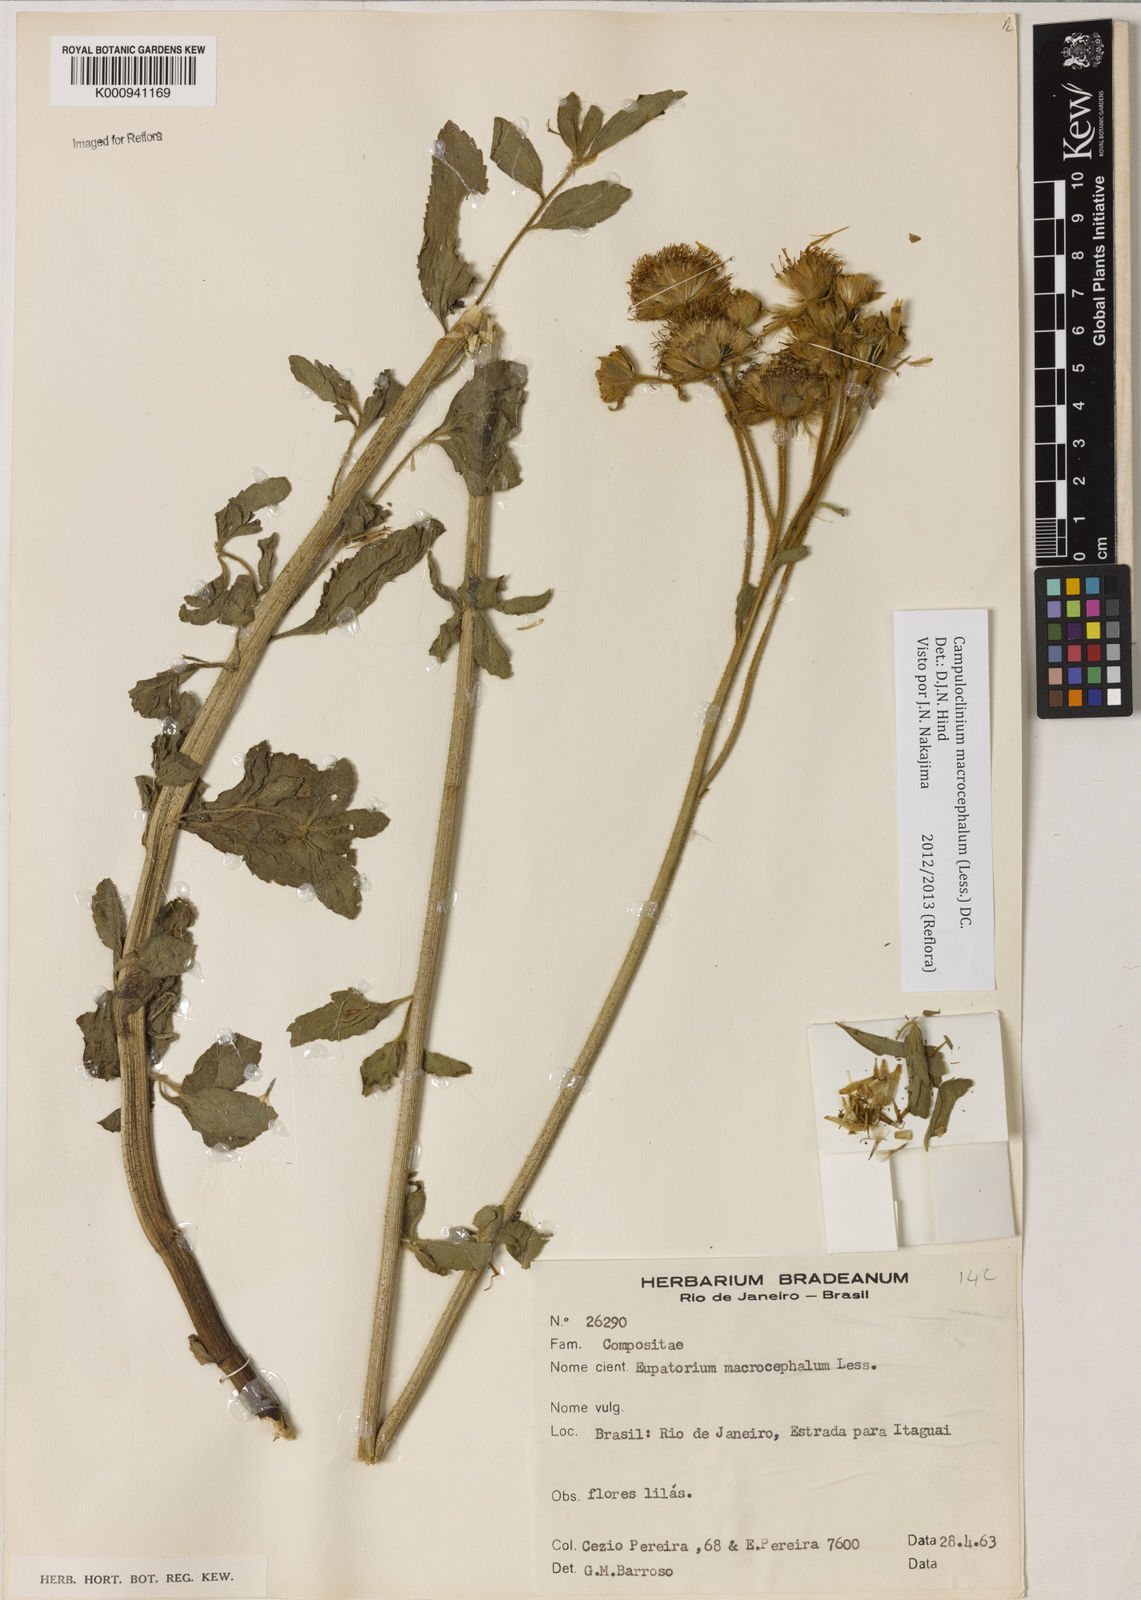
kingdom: Plantae
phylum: Tracheophyta
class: Magnoliopsida
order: Asterales
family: Asteraceae
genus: Campuloclinium
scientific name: Campuloclinium macrocephalum
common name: Pompomweed
